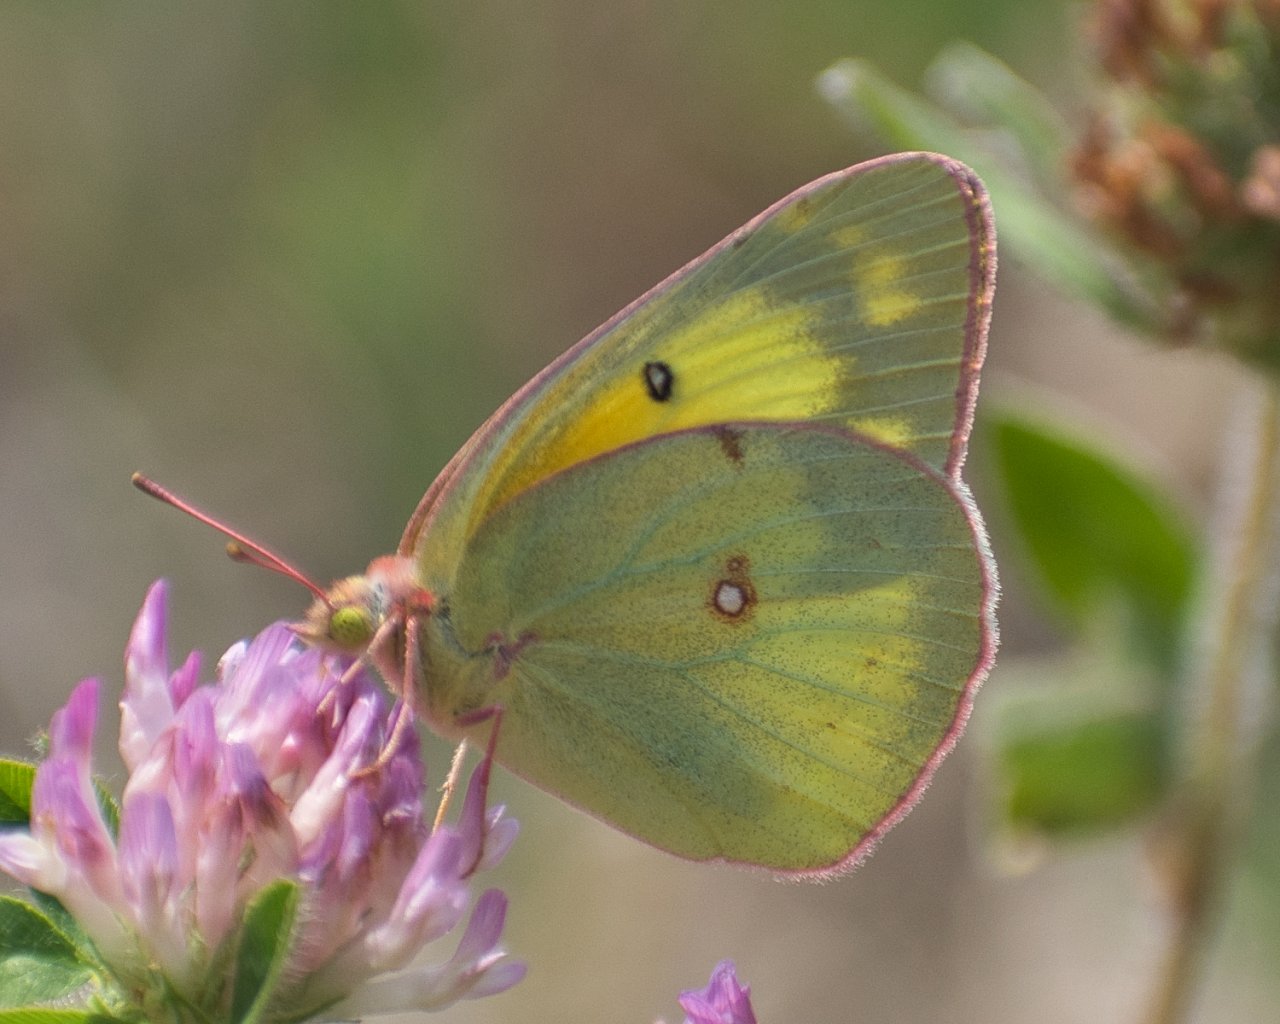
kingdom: Animalia
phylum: Arthropoda
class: Insecta
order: Lepidoptera
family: Pieridae
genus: Colias
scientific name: Colias eurytheme
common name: Orange Sulphur
